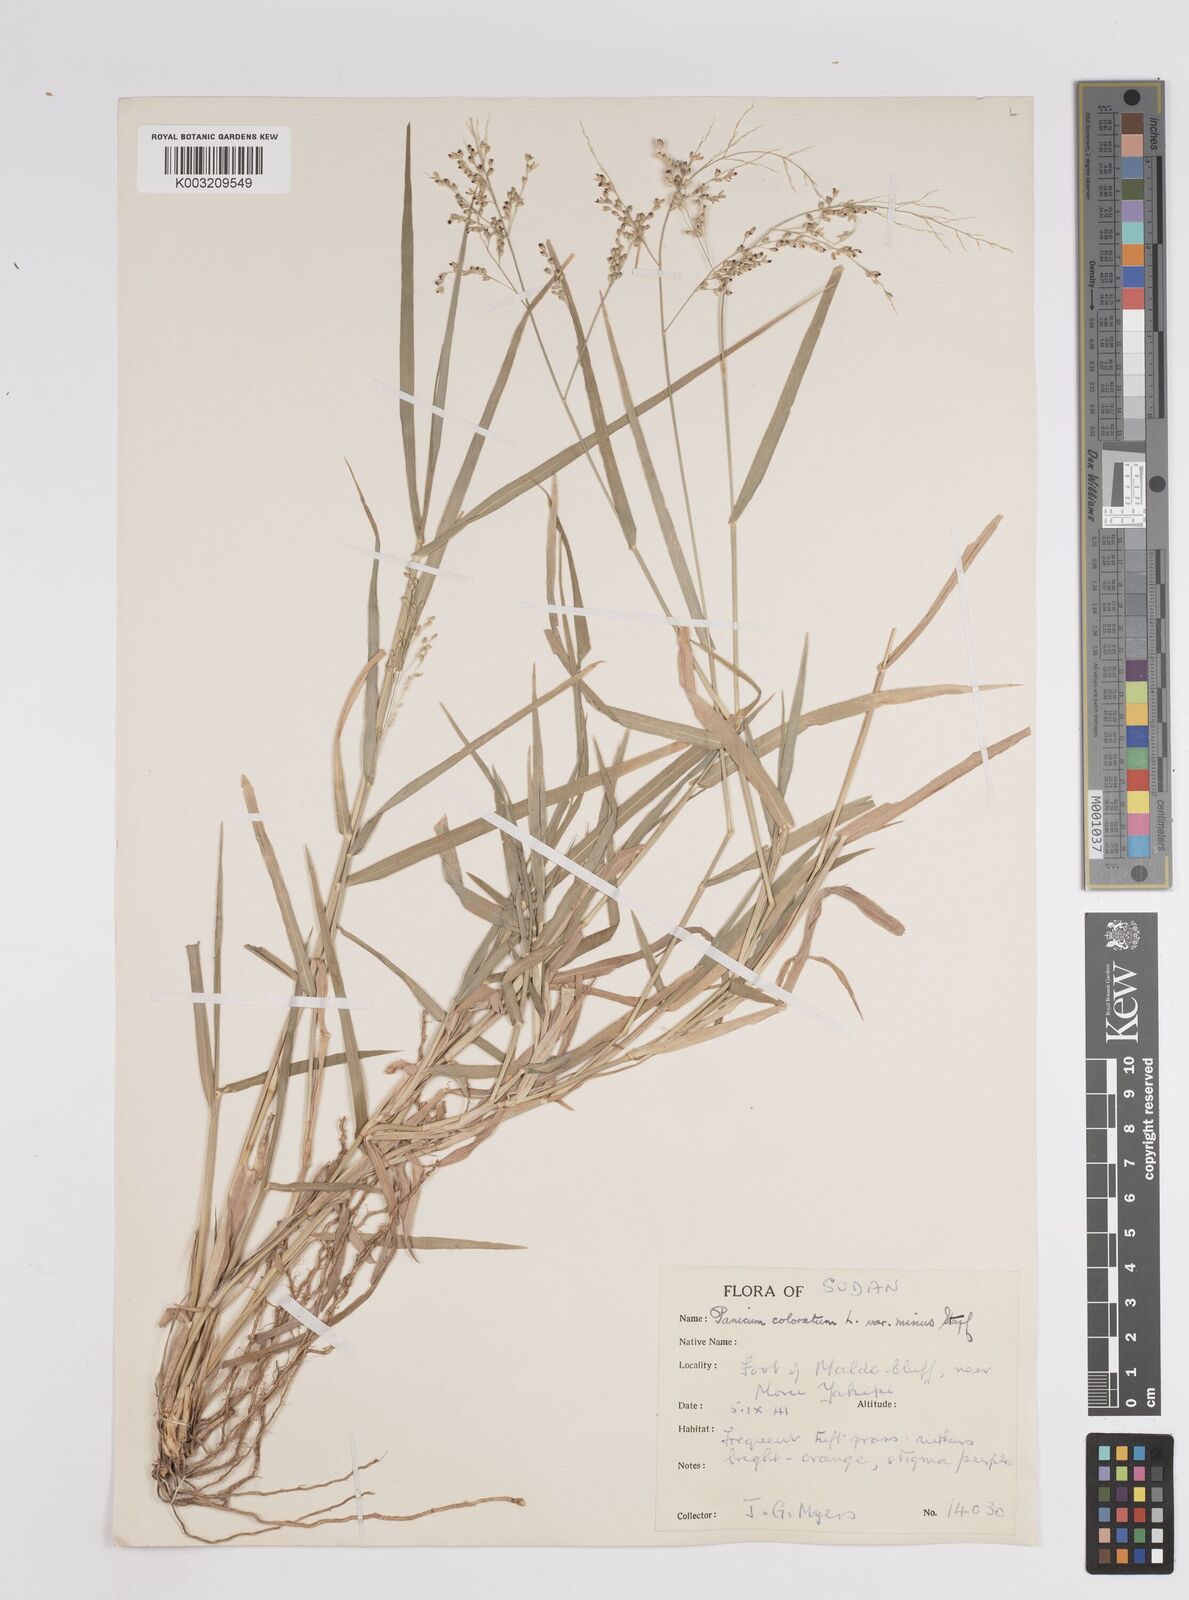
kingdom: Plantae
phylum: Tracheophyta
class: Liliopsida
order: Poales
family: Poaceae
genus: Panicum
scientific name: Panicum coloratum
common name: Kleingrass
